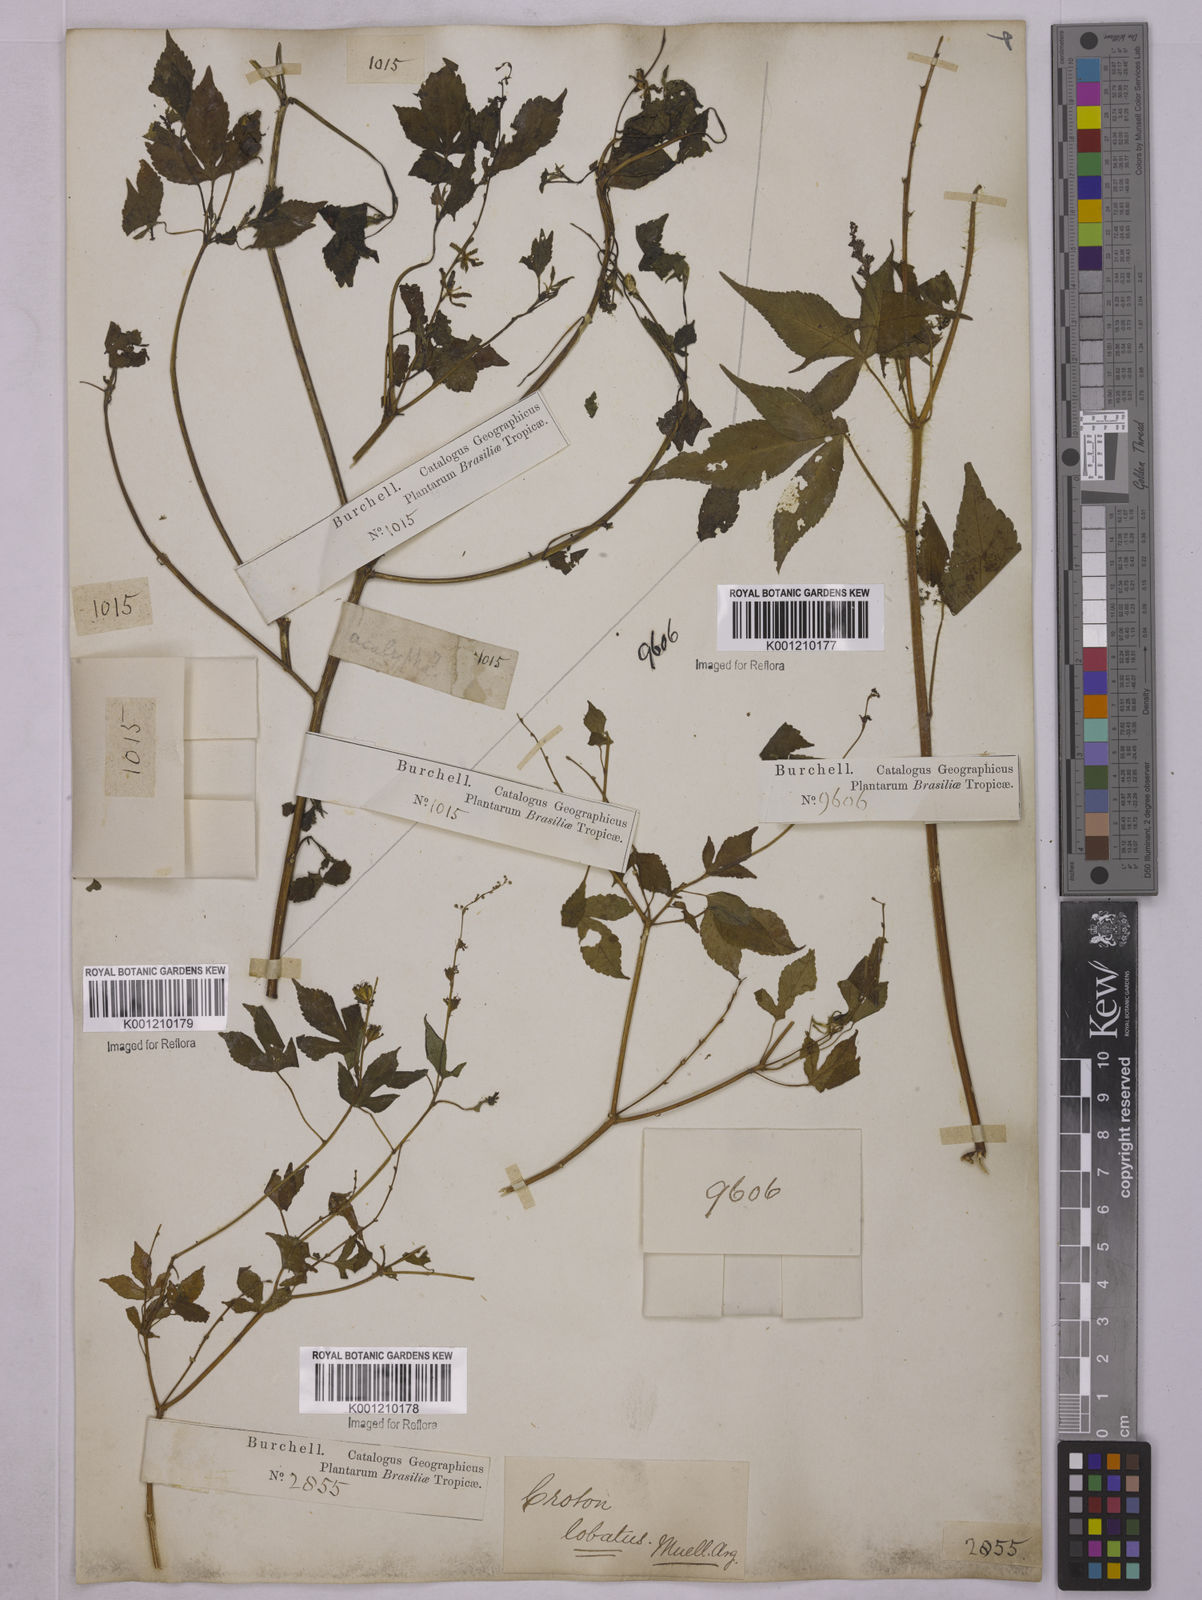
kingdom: Plantae
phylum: Tracheophyta
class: Magnoliopsida
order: Malpighiales
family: Euphorbiaceae
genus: Astraea
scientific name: Astraea lobata
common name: Lobed croton
